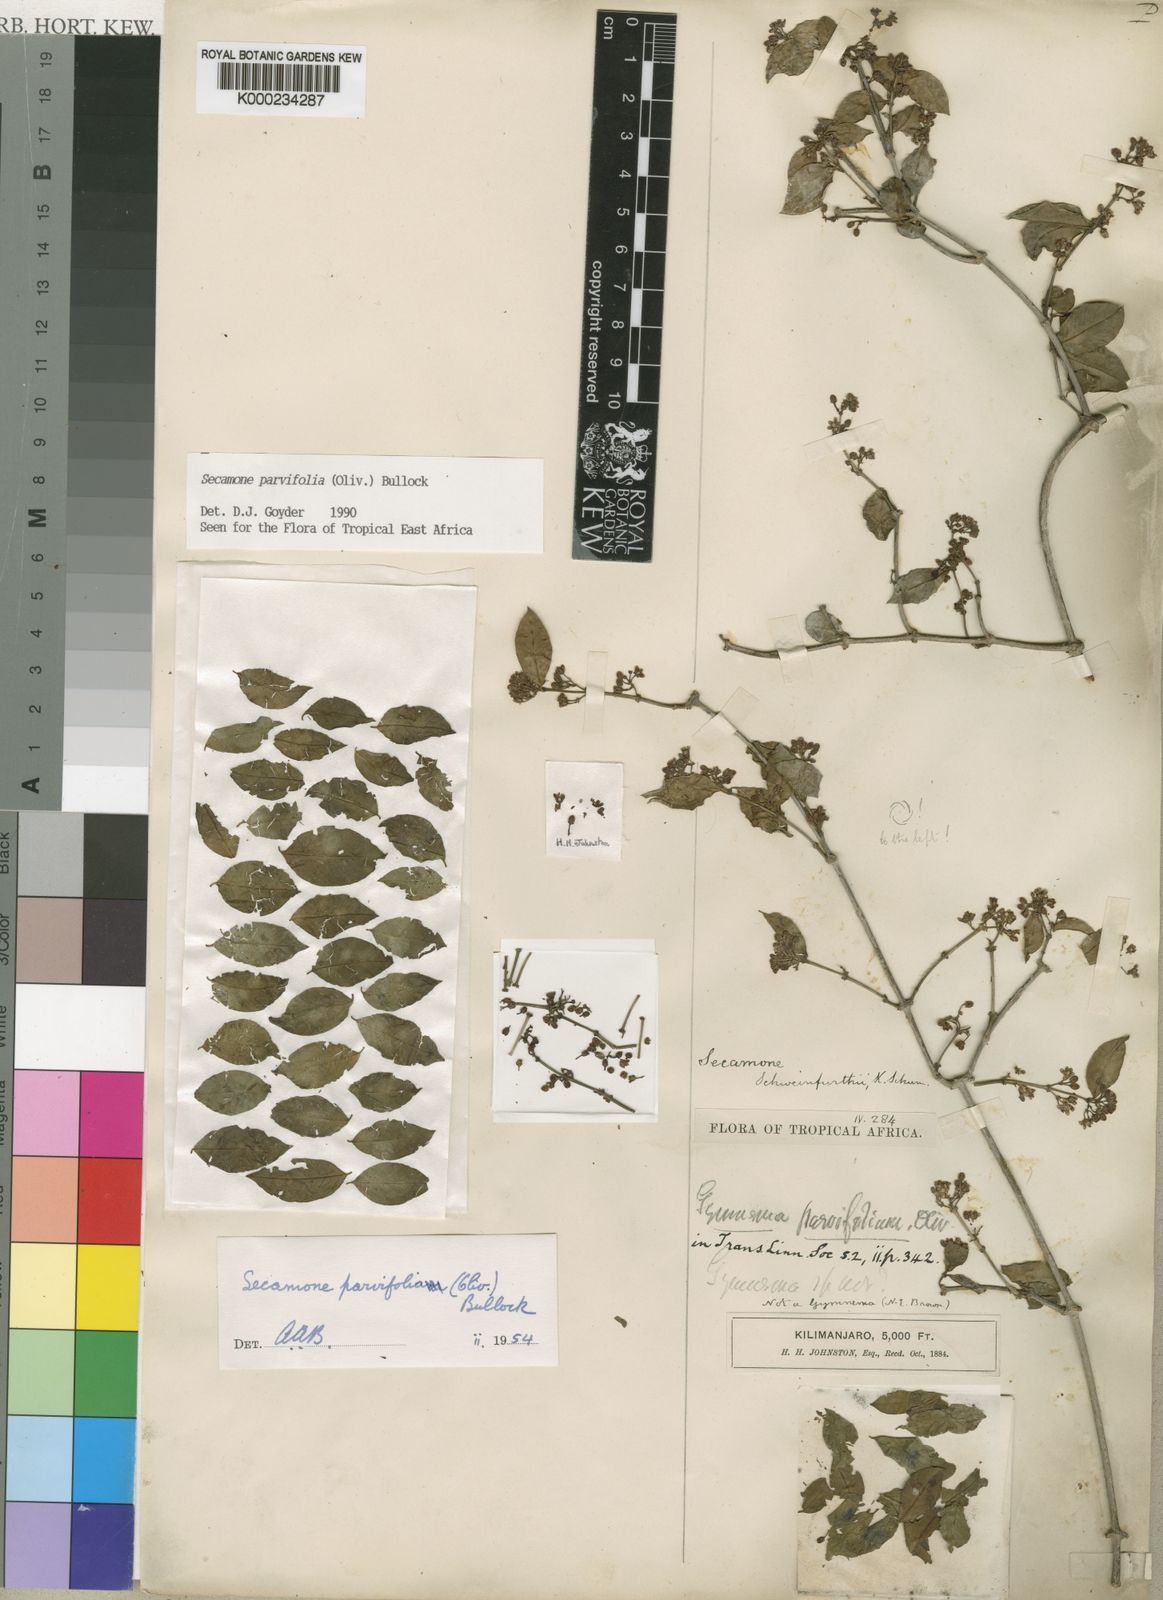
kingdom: Plantae
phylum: Tracheophyta
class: Magnoliopsida
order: Gentianales
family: Apocynaceae
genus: Secamone
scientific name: Secamone schweinfurthii
